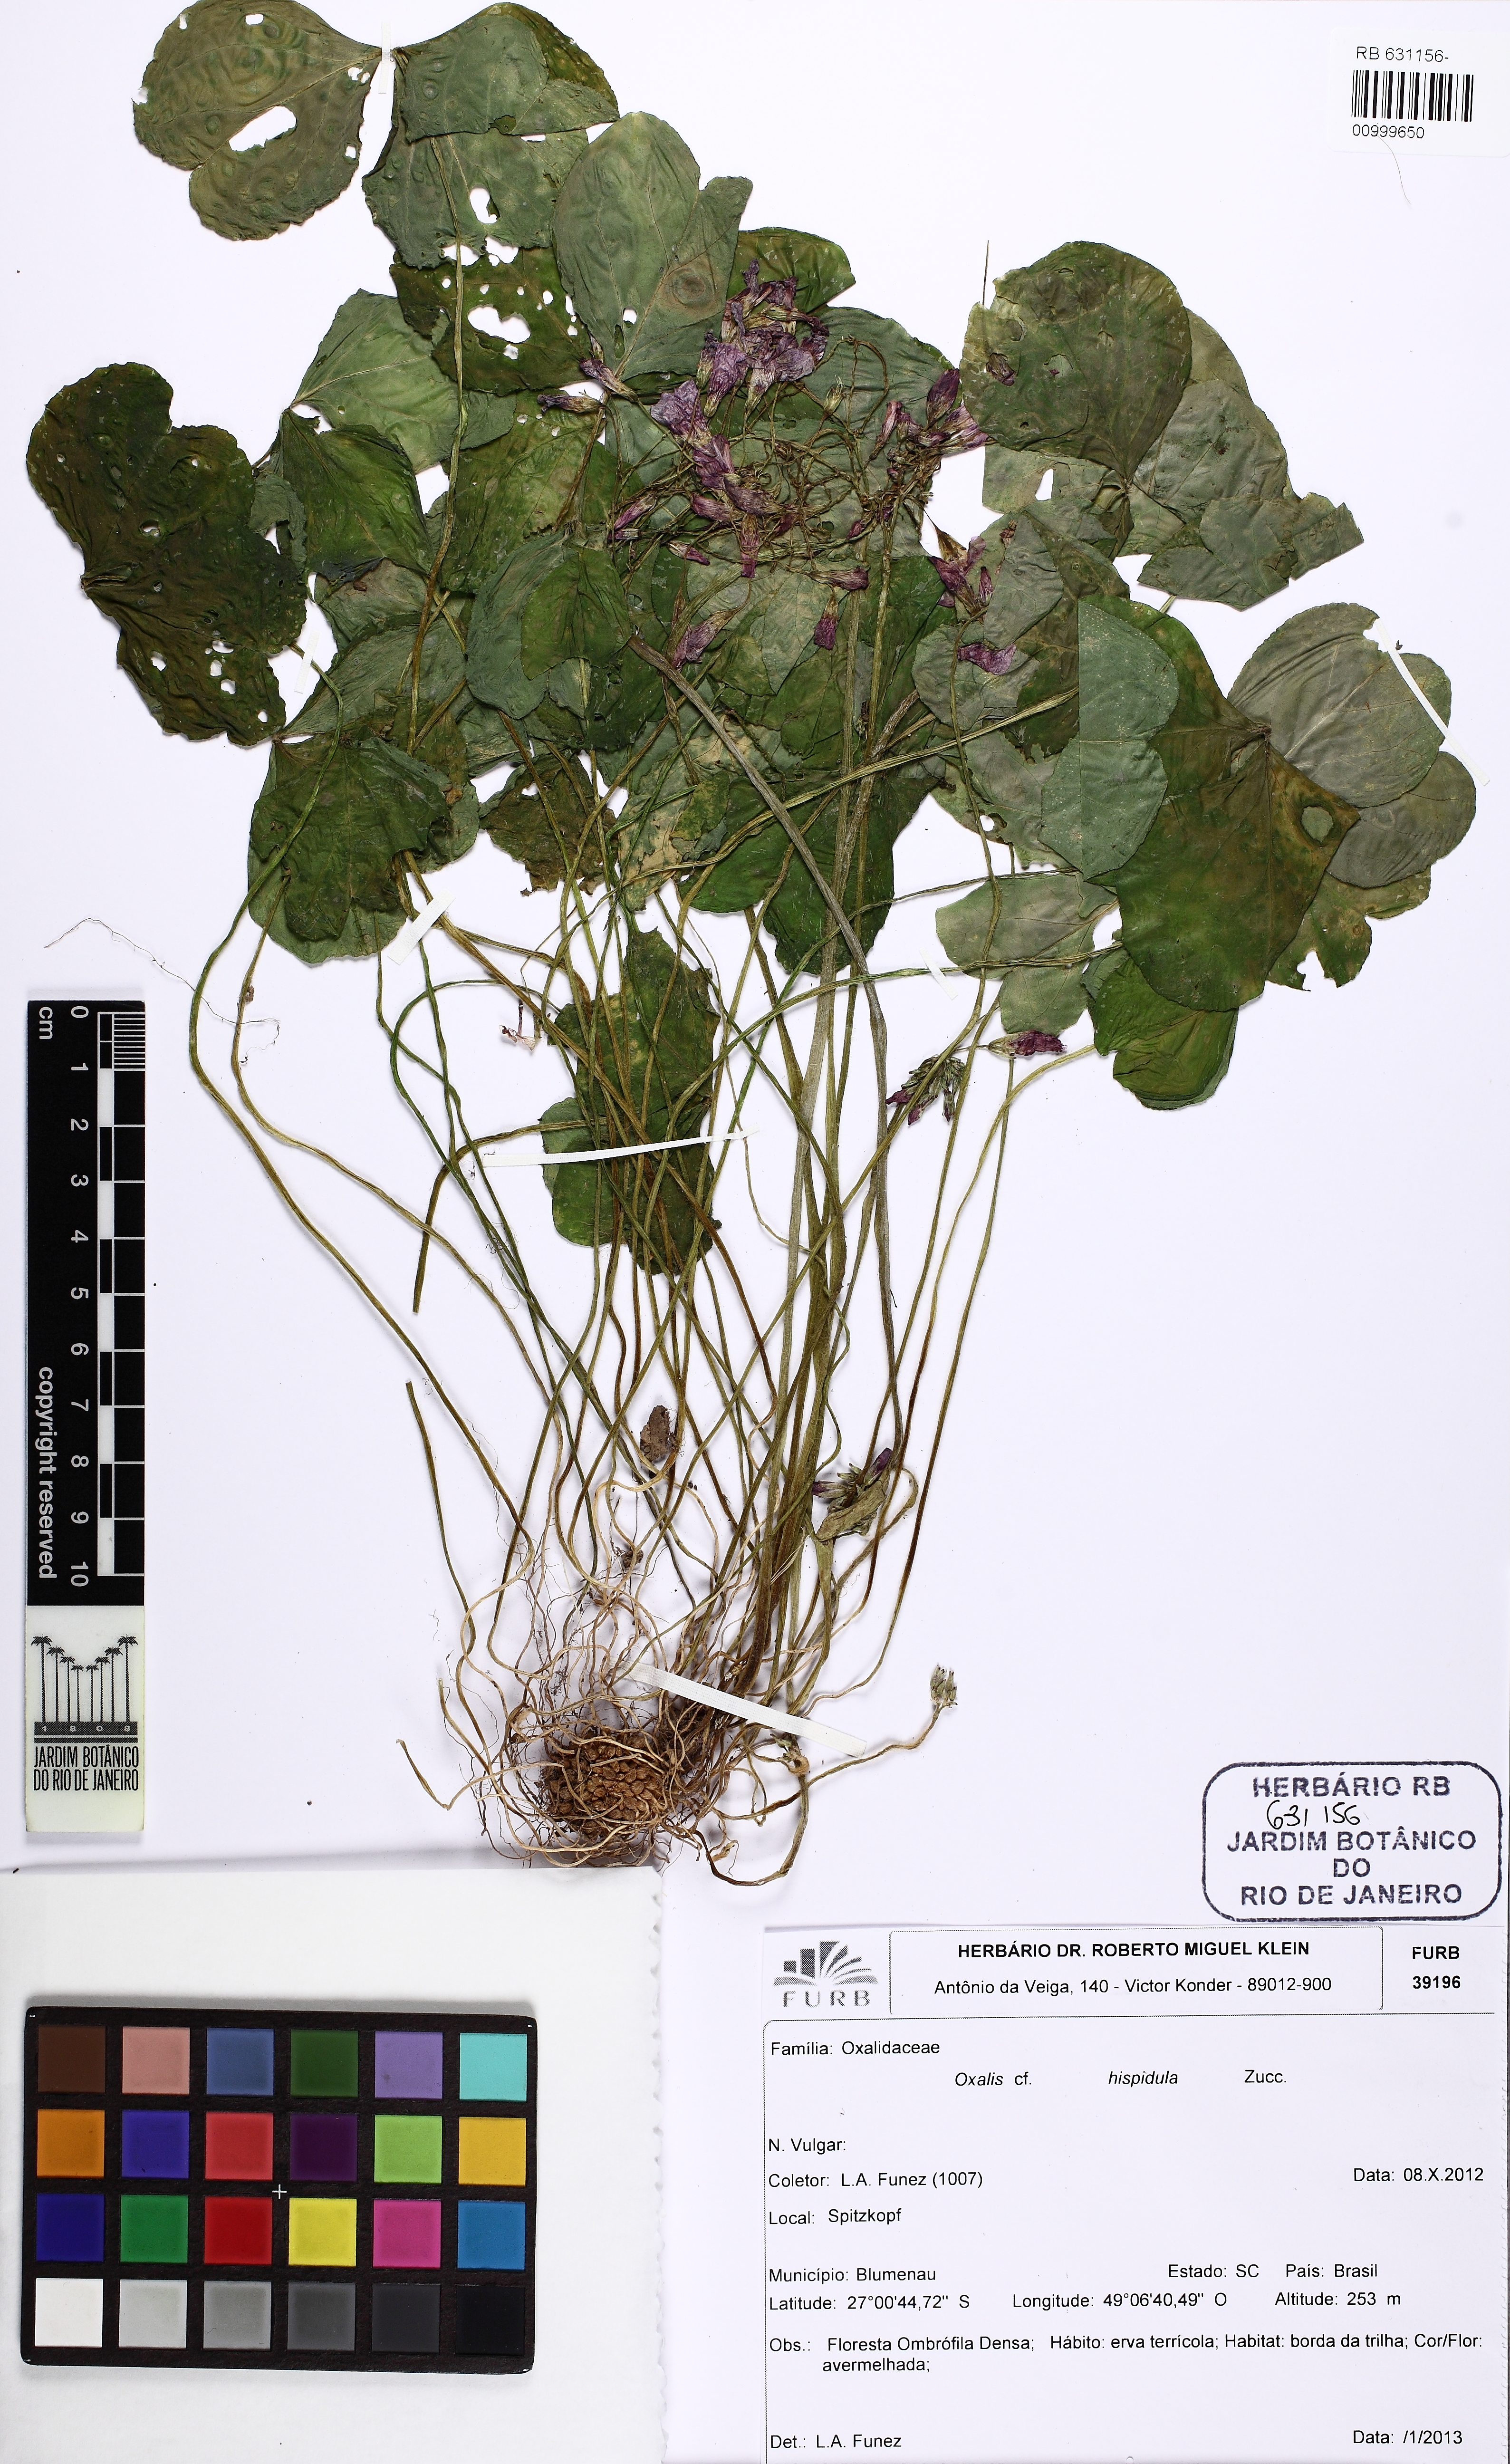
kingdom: Plantae
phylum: Tracheophyta
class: Magnoliopsida
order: Oxalidales
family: Oxalidaceae
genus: Oxalis
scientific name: Oxalis hispidula
